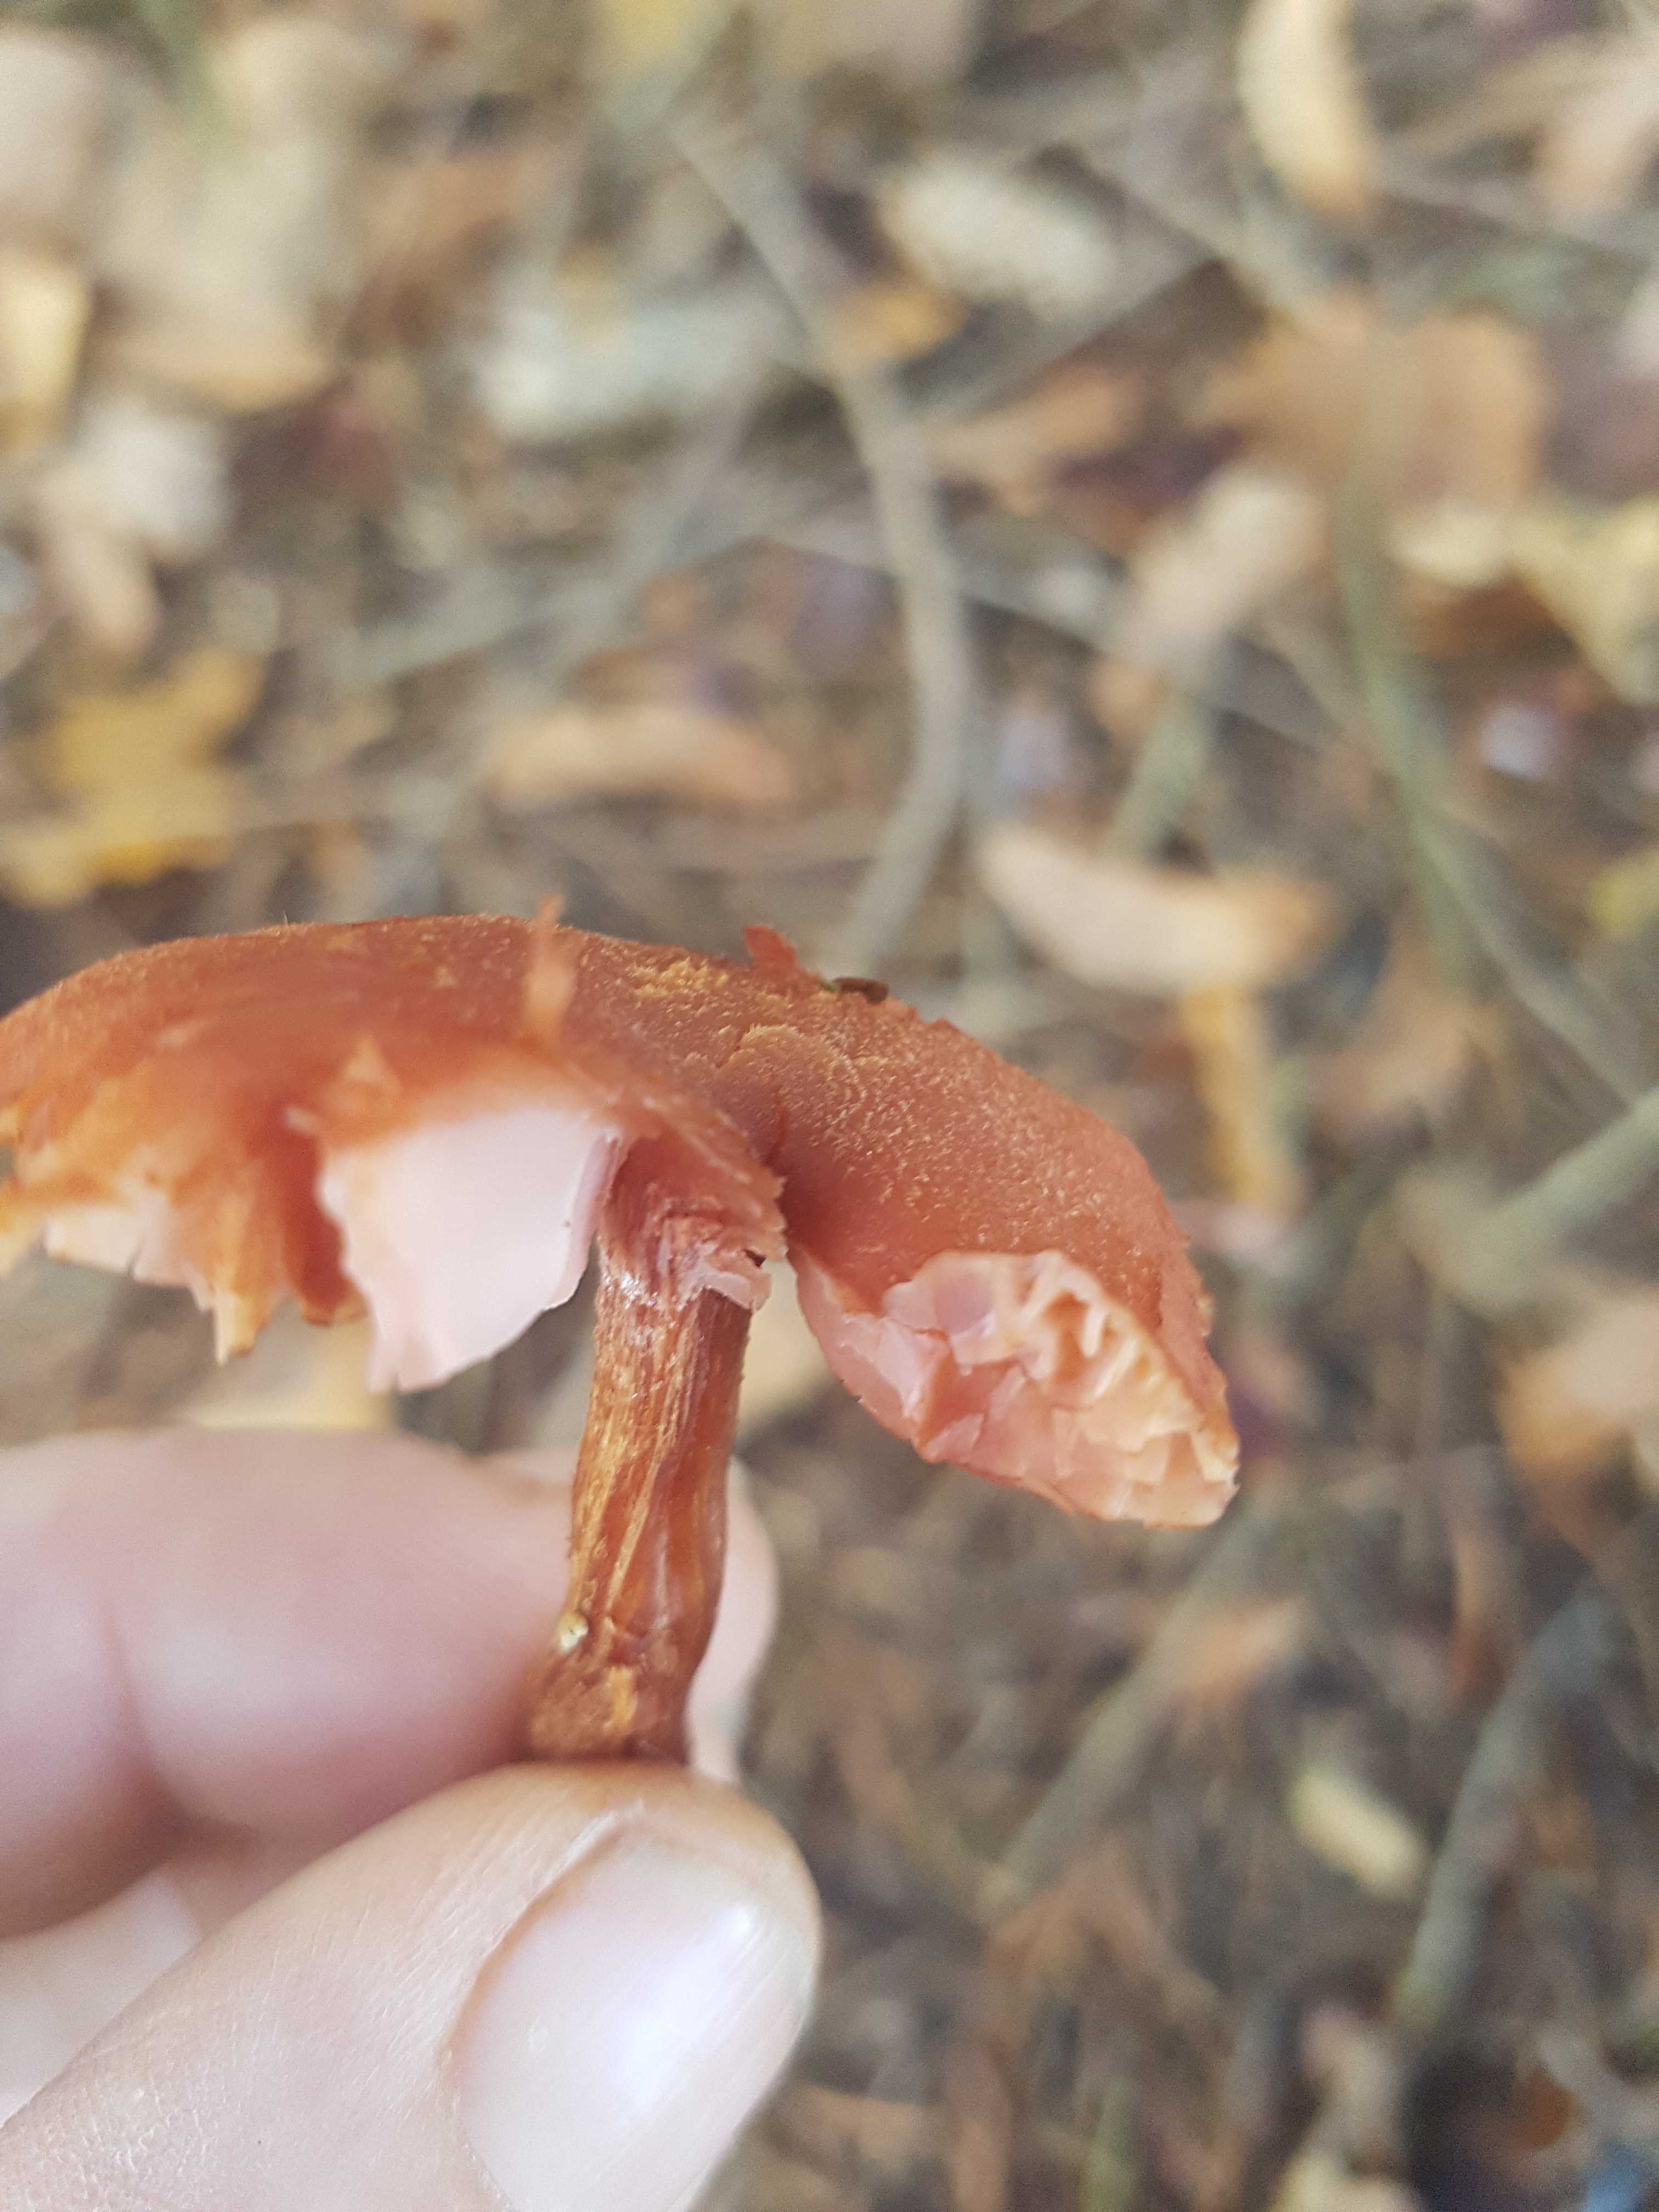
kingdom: Fungi
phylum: Basidiomycota
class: Agaricomycetes
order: Agaricales
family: Hydnangiaceae
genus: Laccaria
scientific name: Laccaria proxima
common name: stor ametysthat
